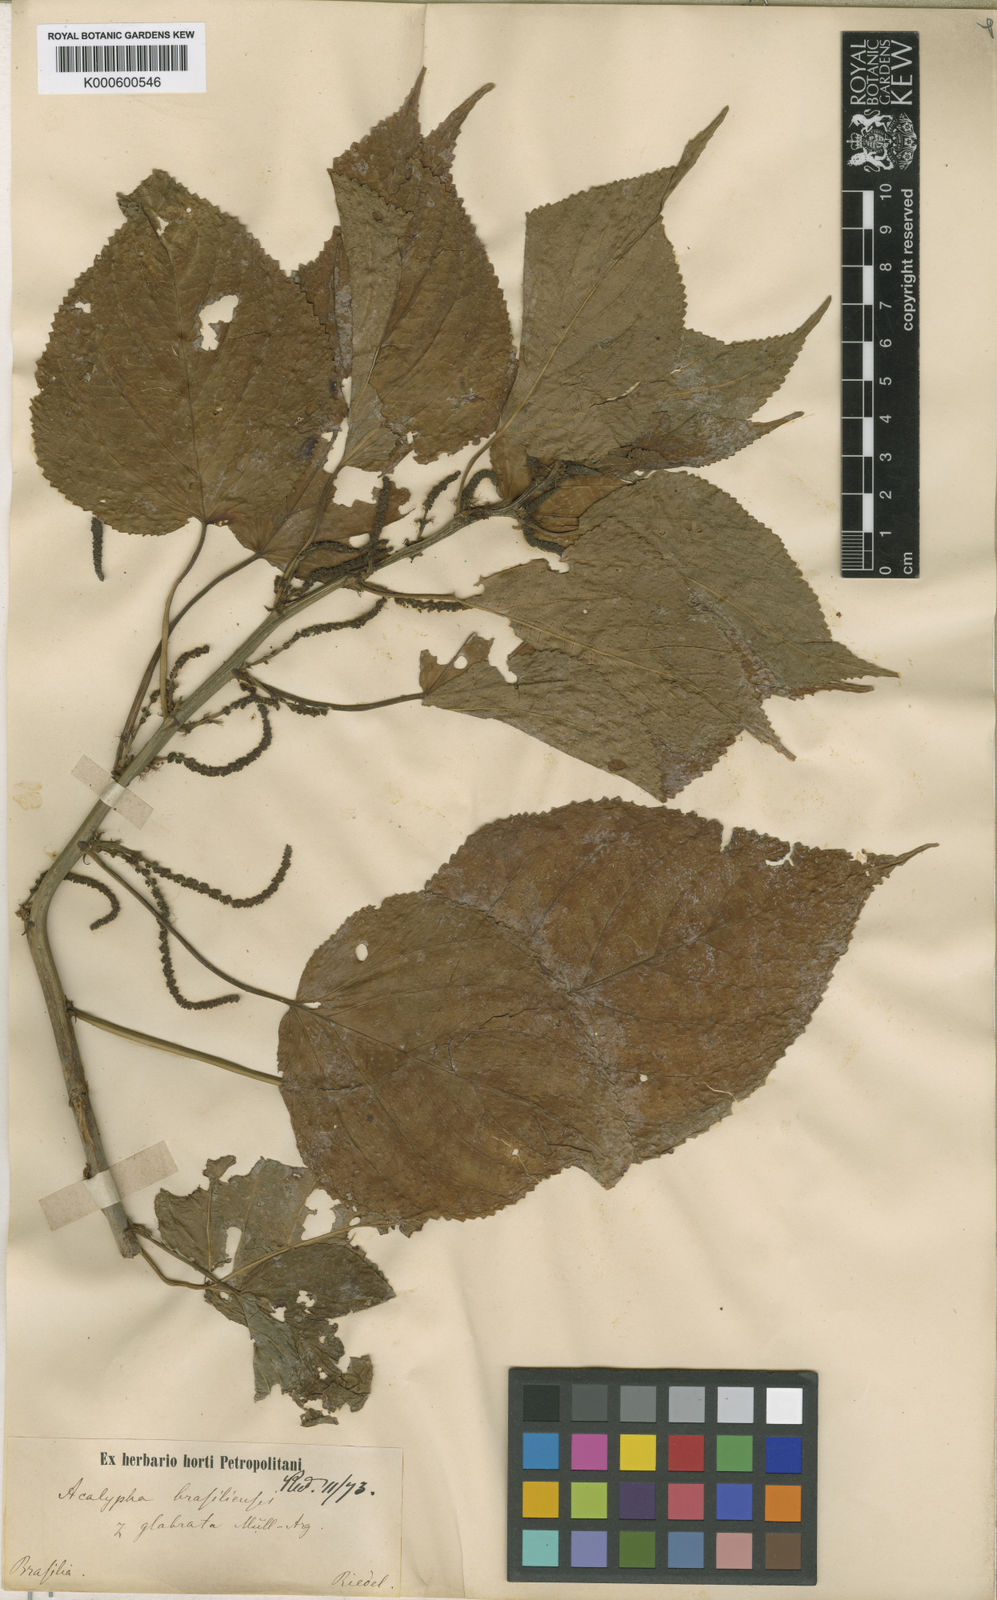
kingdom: Plantae
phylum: Tracheophyta
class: Magnoliopsida
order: Malpighiales
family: Euphorbiaceae
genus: Acalypha
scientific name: Acalypha
